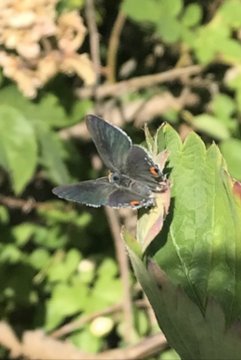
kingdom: Animalia
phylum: Arthropoda
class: Insecta
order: Lepidoptera
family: Lycaenidae
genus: Strymon
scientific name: Strymon melinus
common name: Gray Hairstreak
